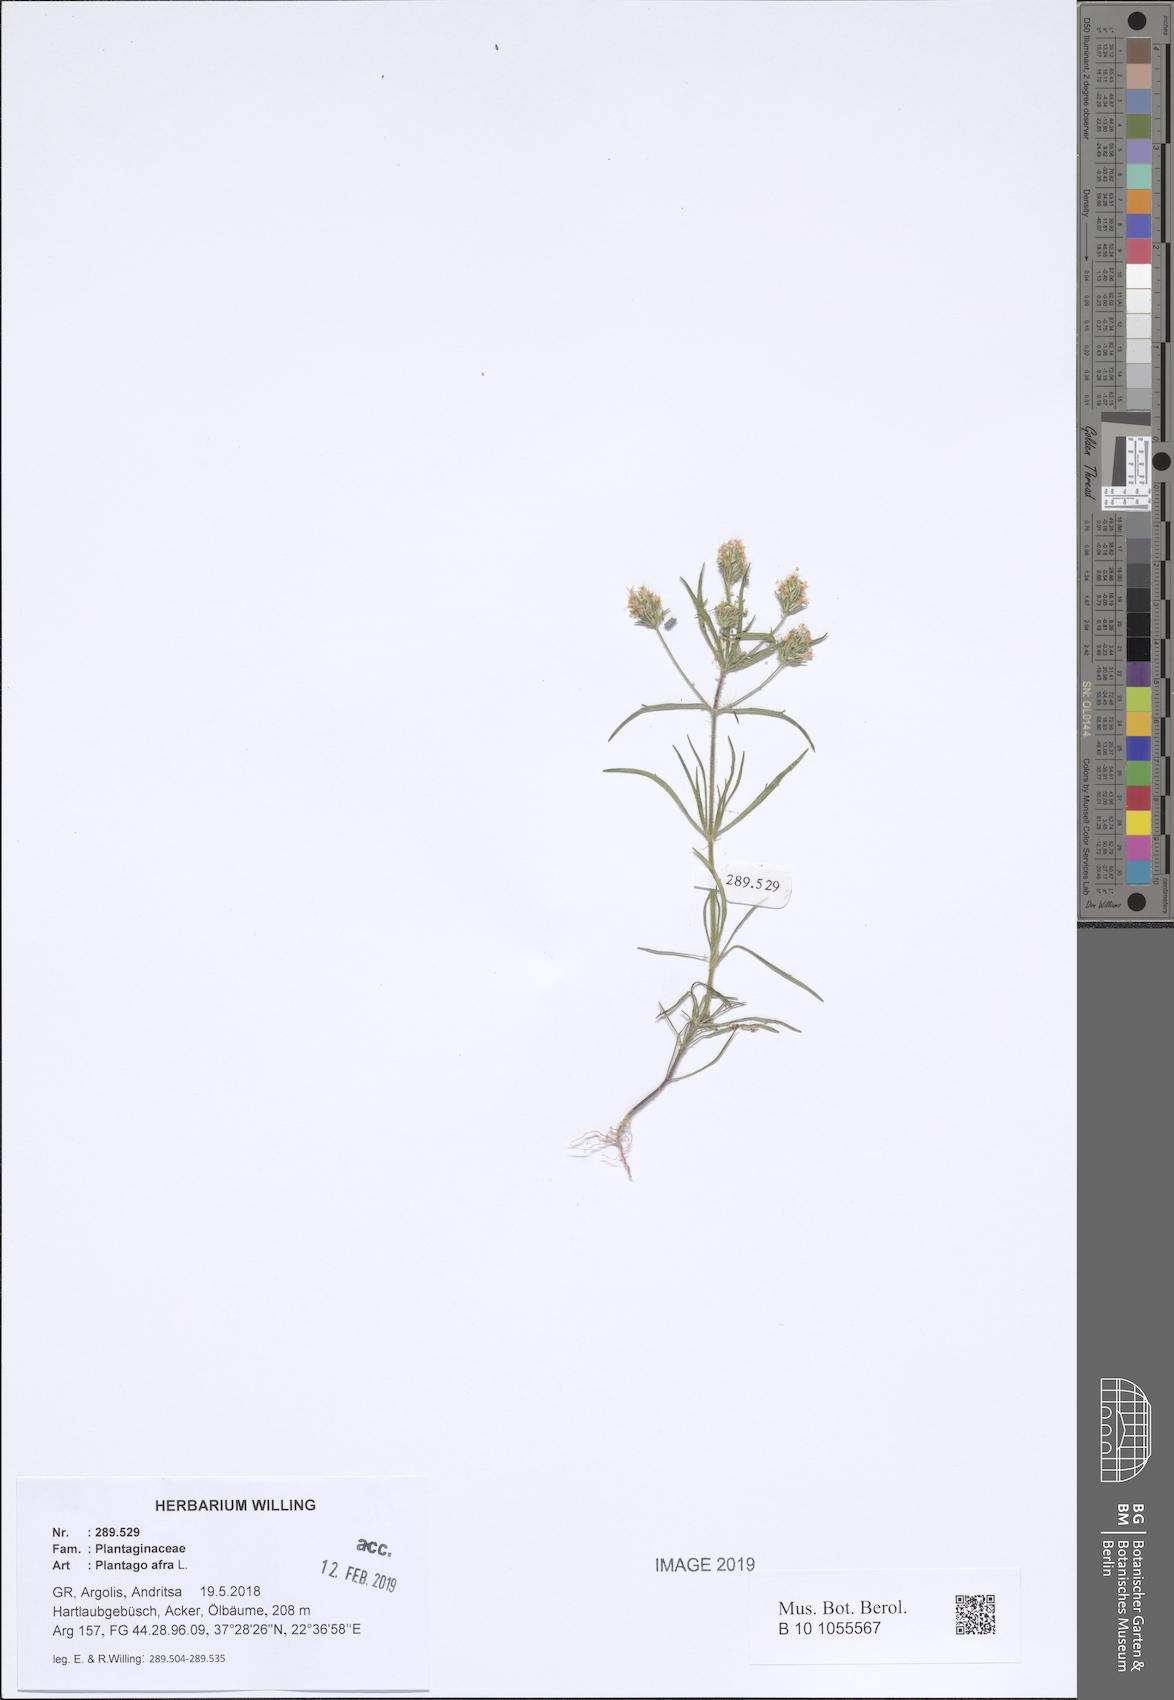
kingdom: Plantae
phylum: Tracheophyta
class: Magnoliopsida
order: Lamiales
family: Plantaginaceae
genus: Plantago
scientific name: Plantago afra
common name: Glandular plantain
